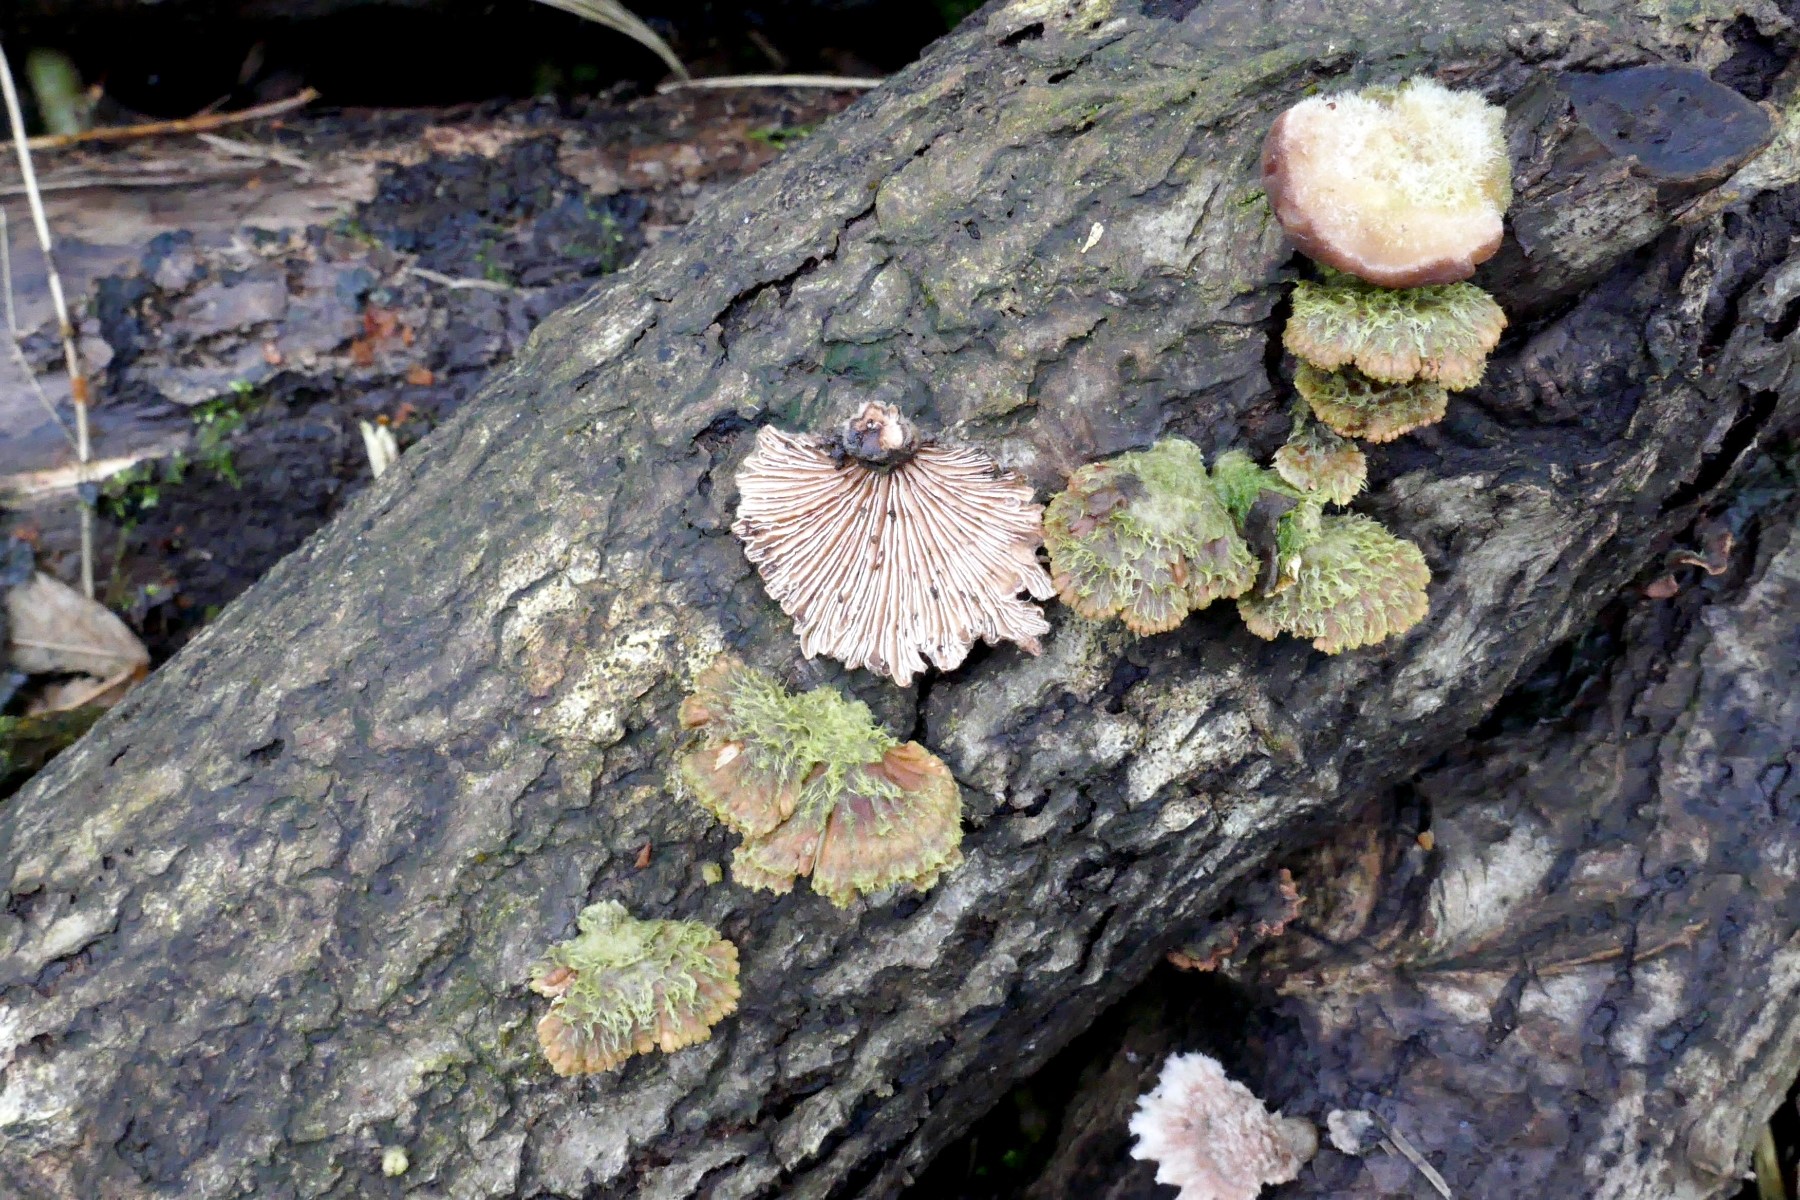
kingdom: Fungi
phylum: Basidiomycota
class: Agaricomycetes
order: Agaricales
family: Schizophyllaceae
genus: Schizophyllum
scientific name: Schizophyllum commune
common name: kløvblad
